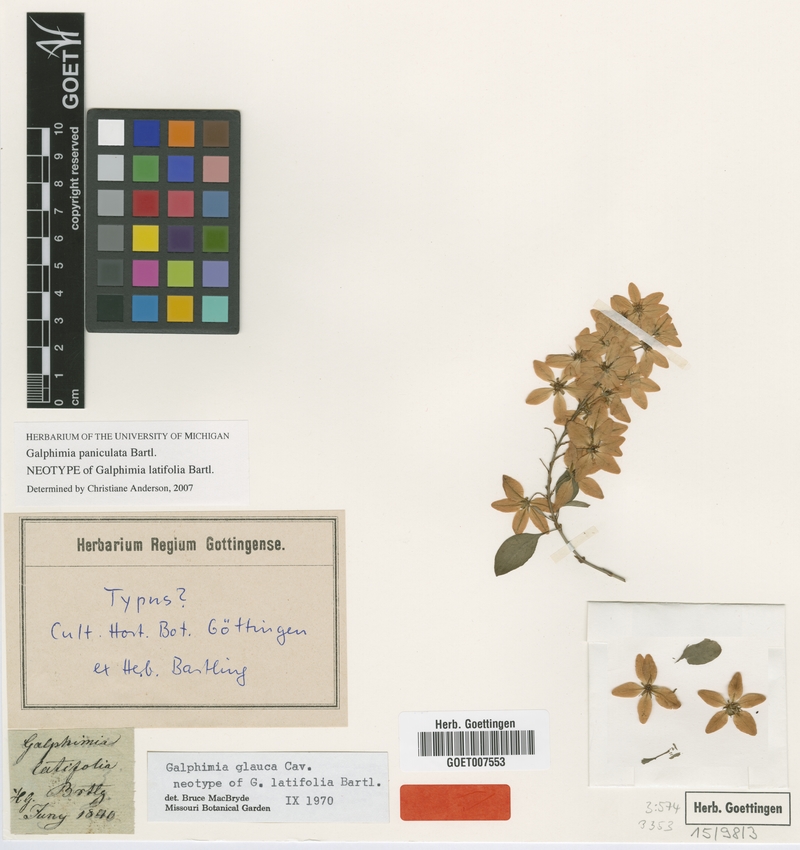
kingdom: Plantae
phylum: Tracheophyta
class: Magnoliopsida
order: Malpighiales
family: Malpighiaceae
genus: Galphimia
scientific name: Galphimia paniculata
